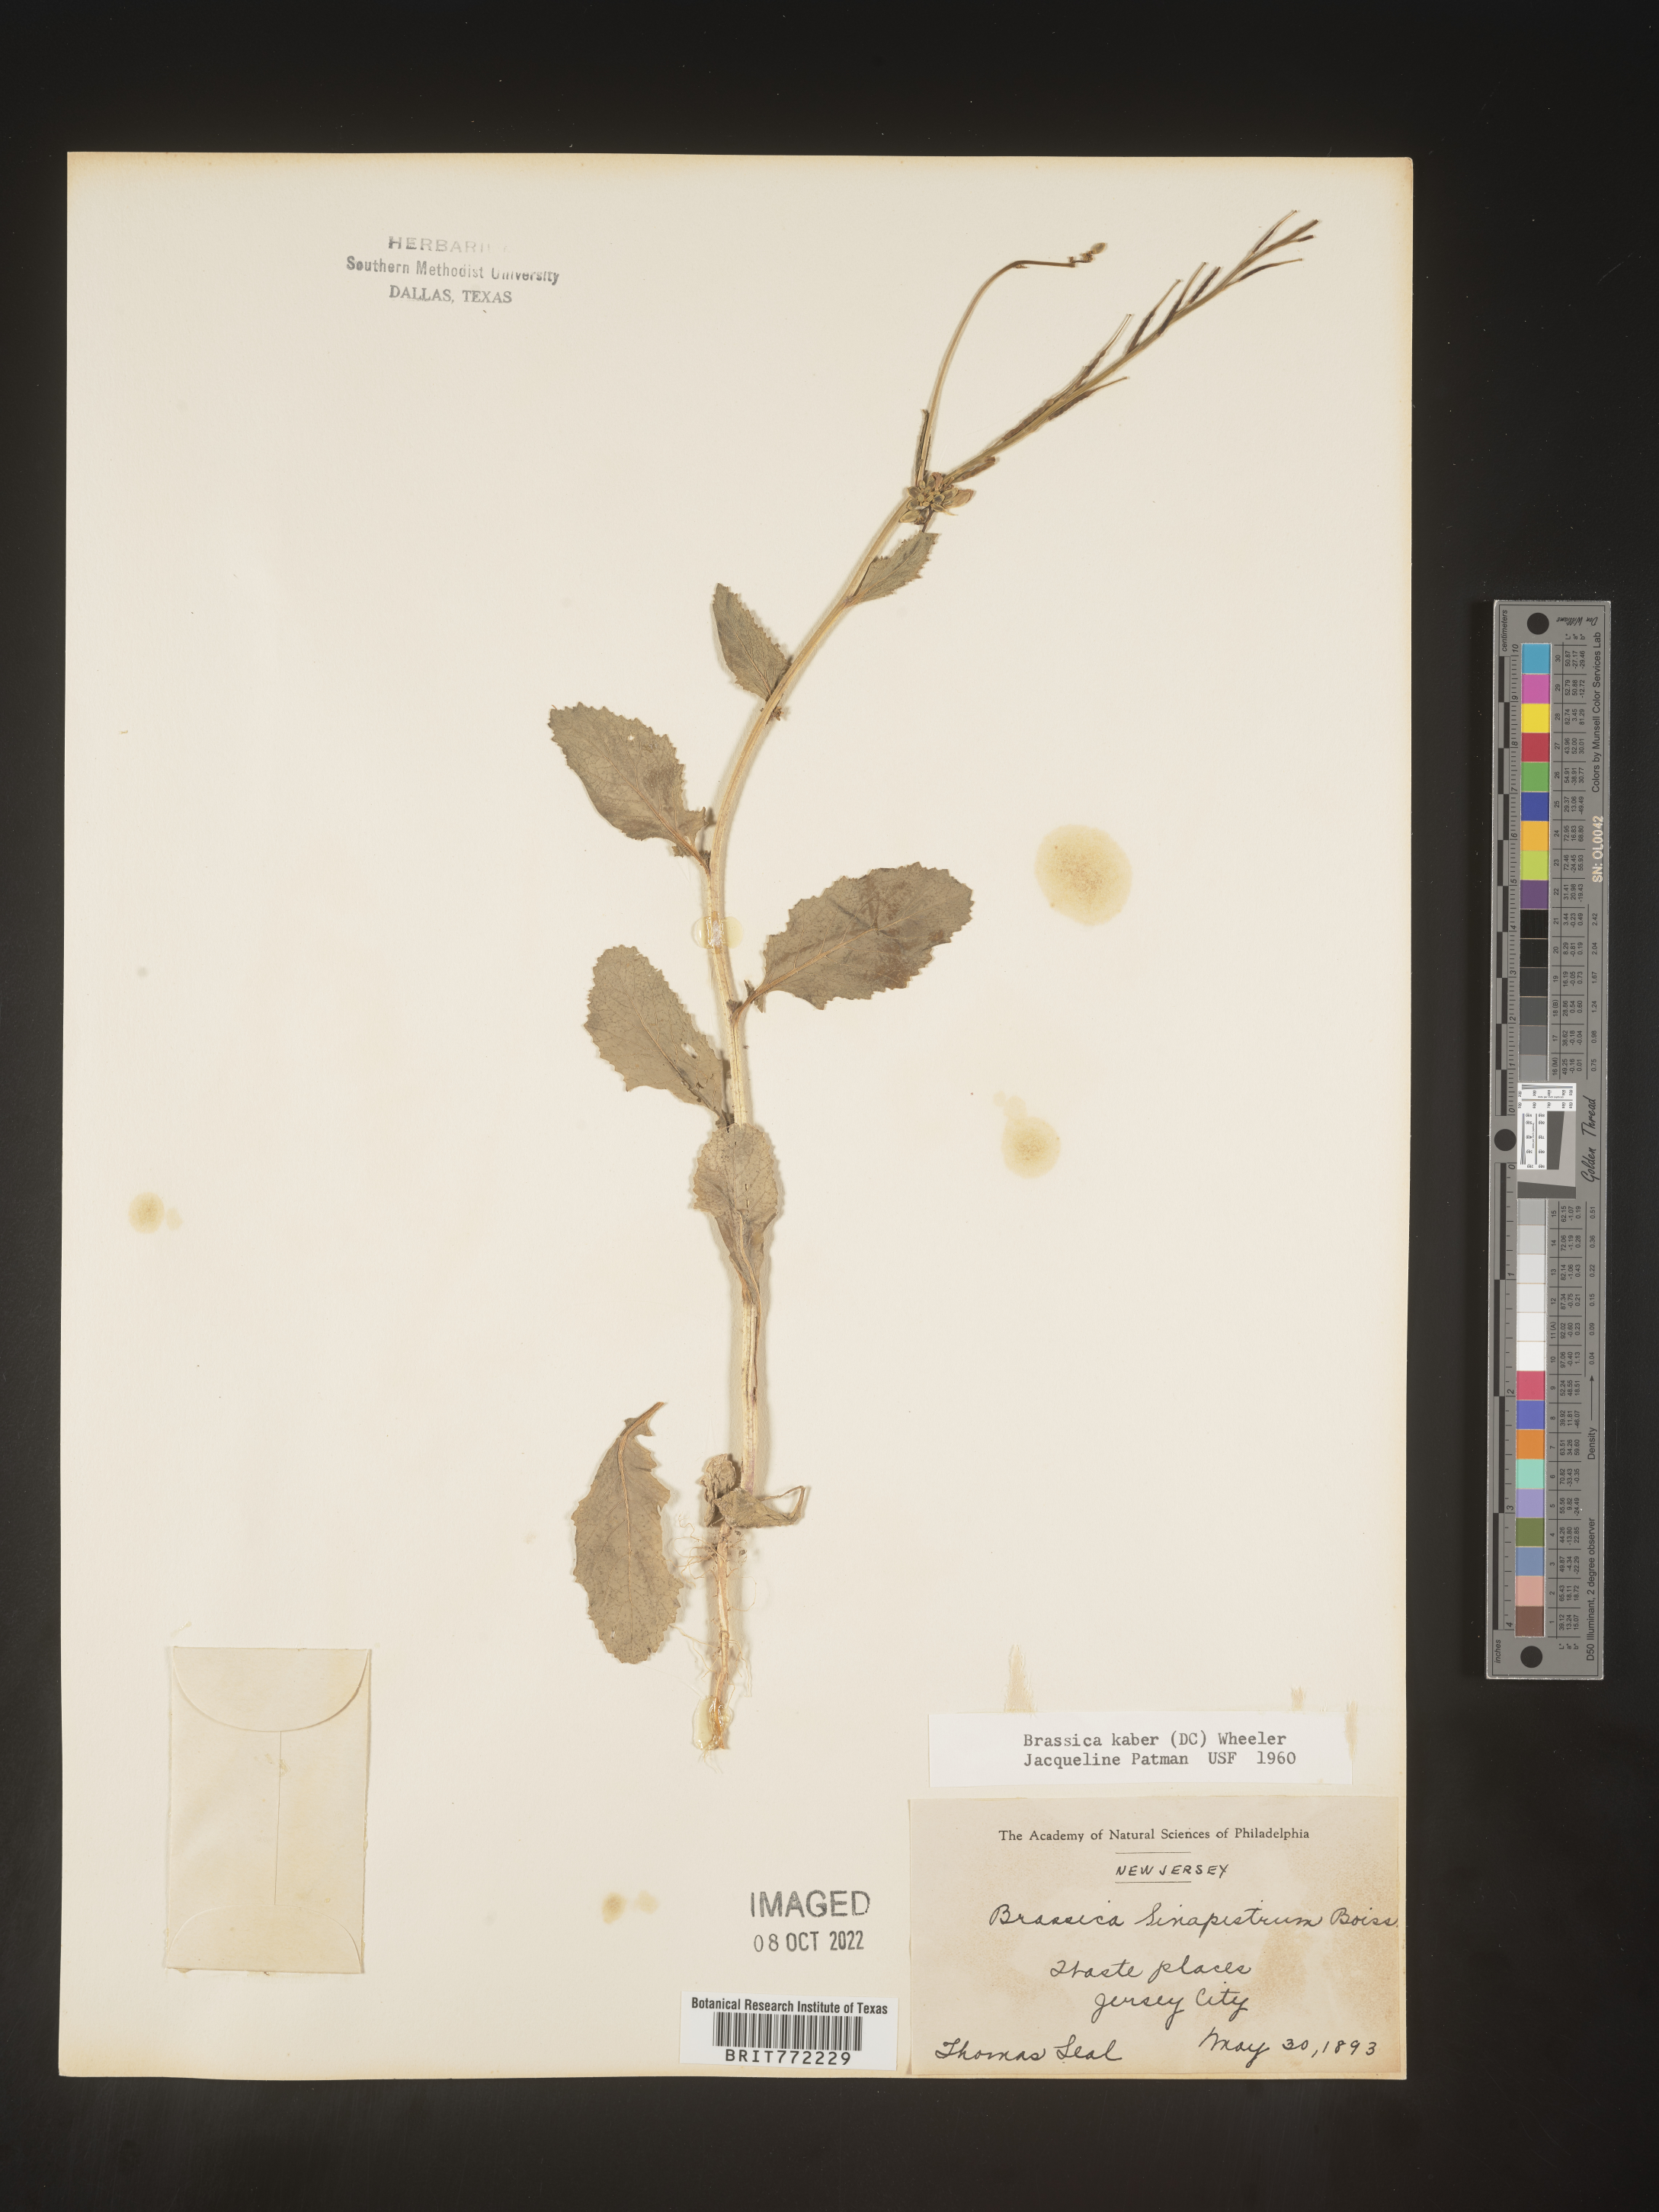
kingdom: Plantae
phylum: Tracheophyta
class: Magnoliopsida
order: Brassicales
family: Brassicaceae
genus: Sinapis
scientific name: Sinapis arvensis
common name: Charlock
